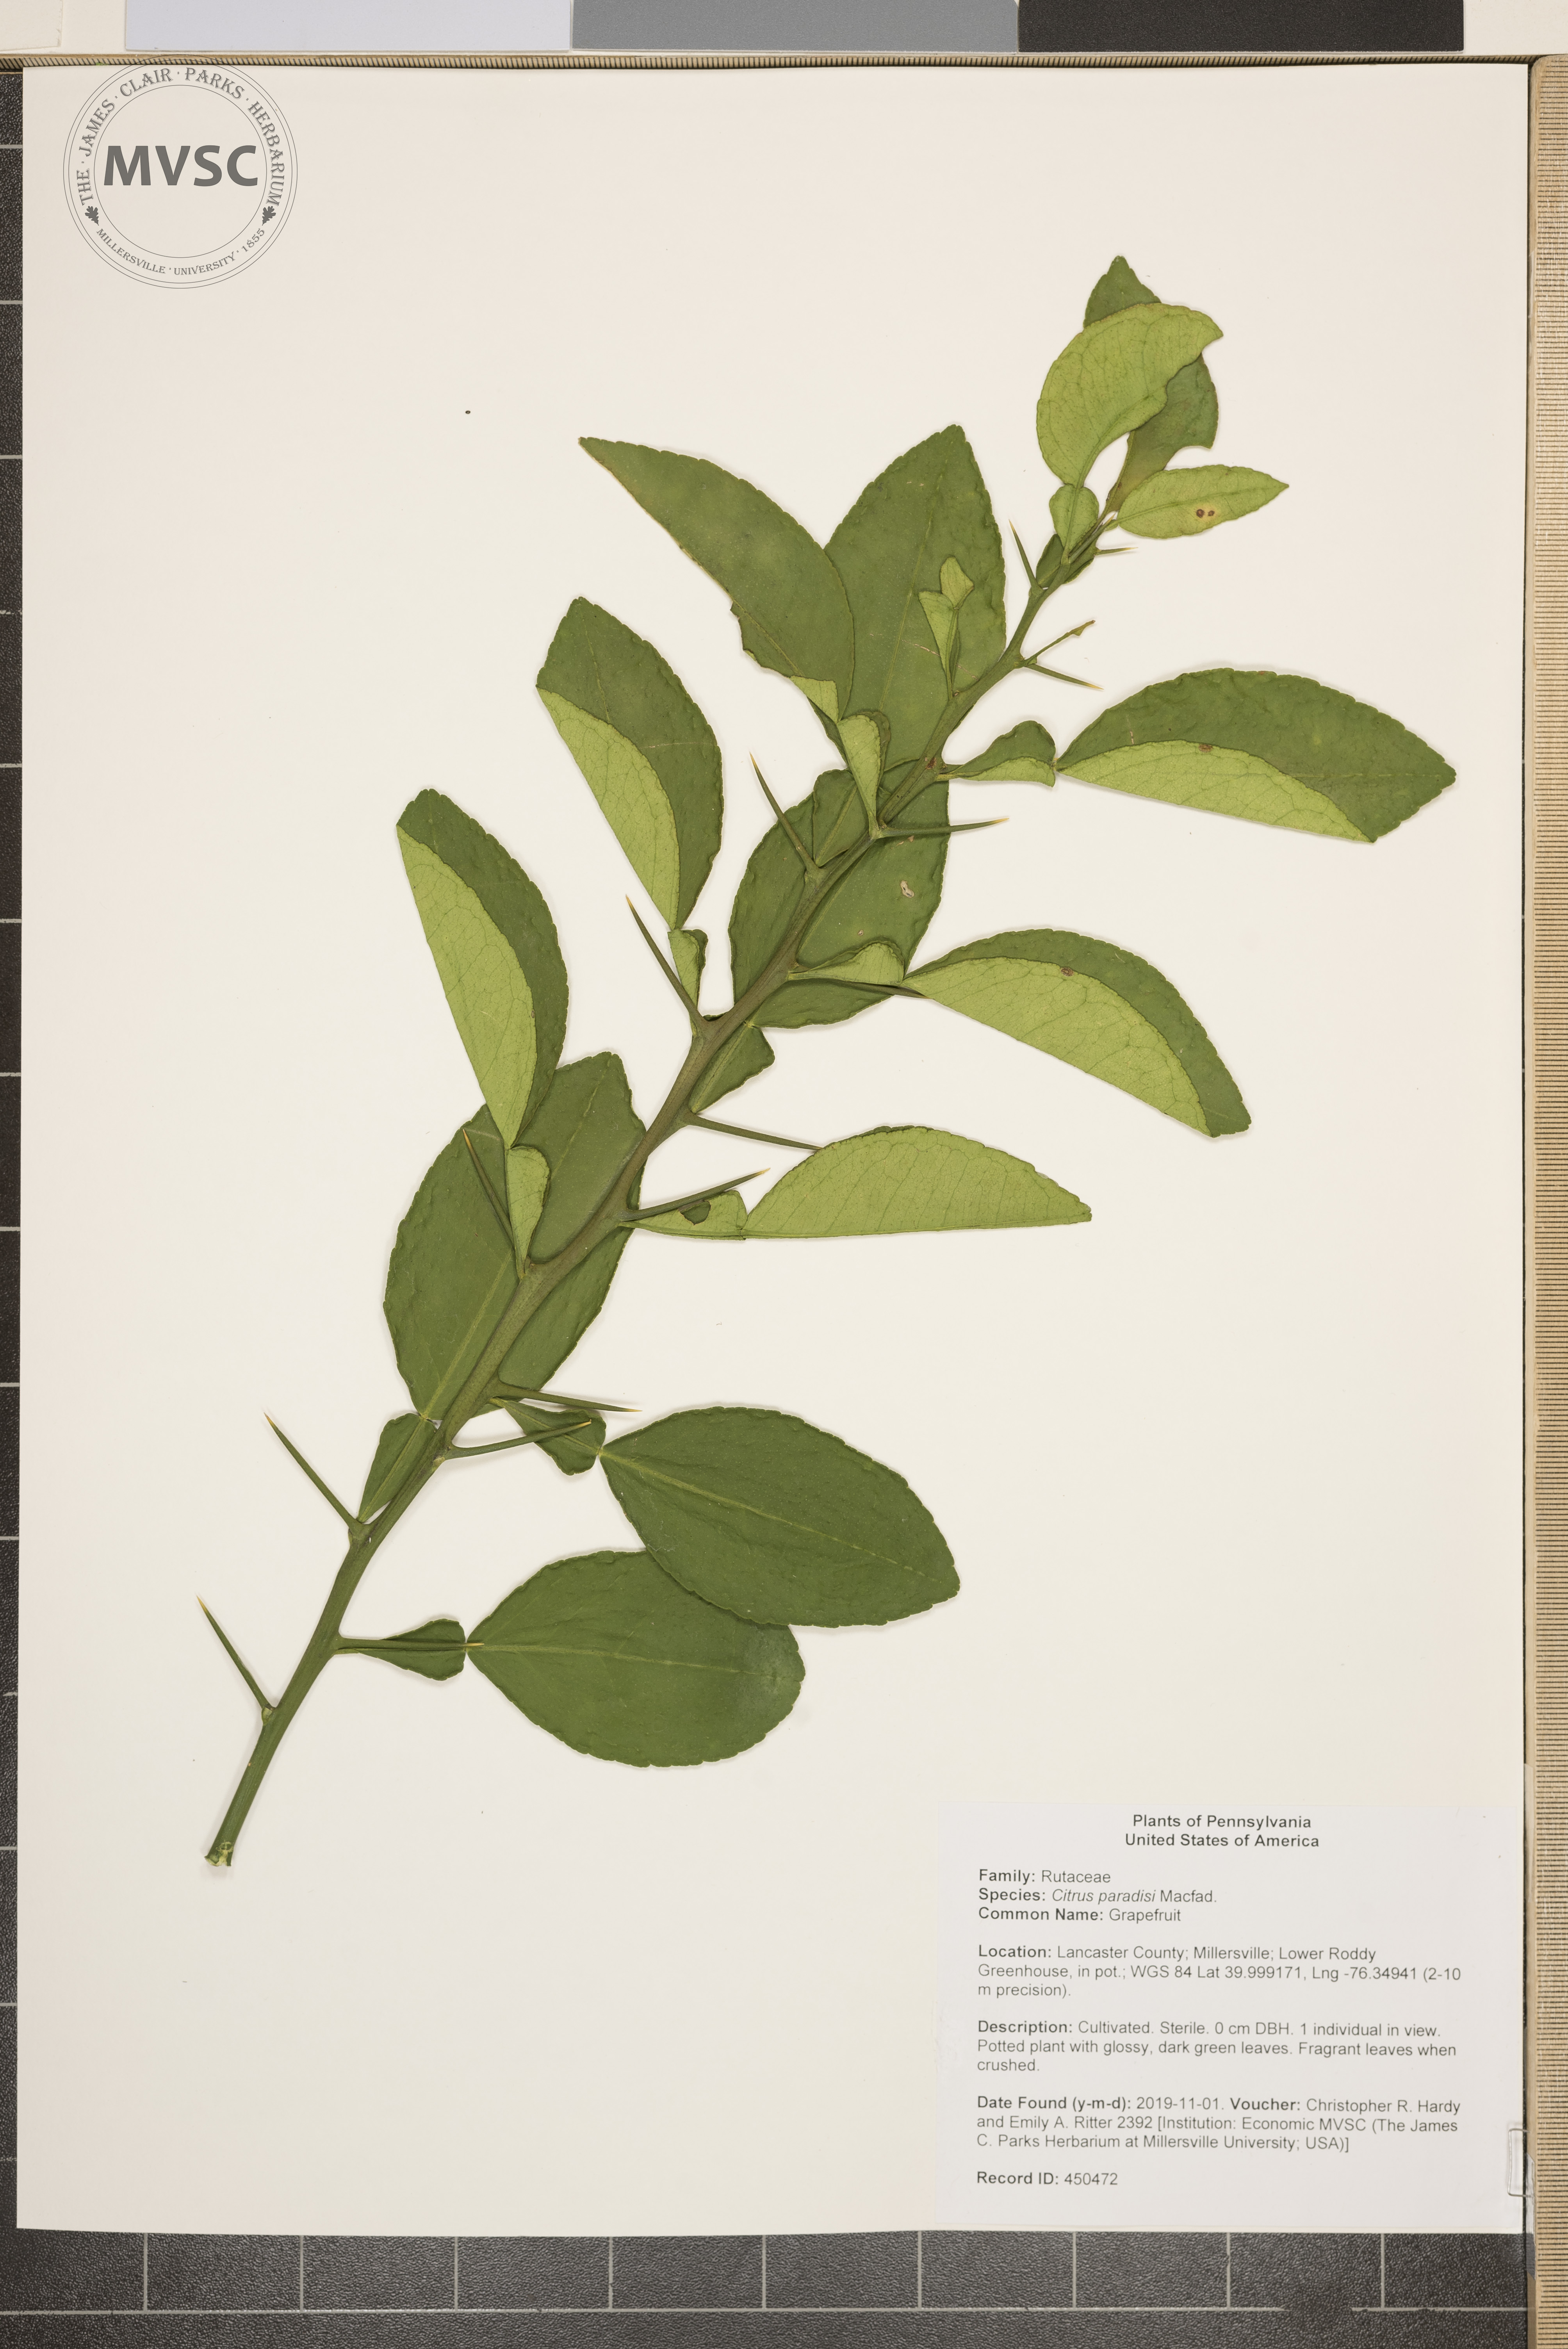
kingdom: Plantae
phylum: Tracheophyta
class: Magnoliopsida
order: Sapindales
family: Rutaceae
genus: Citrus
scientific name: Citrus aurantium
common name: Grapefruit
